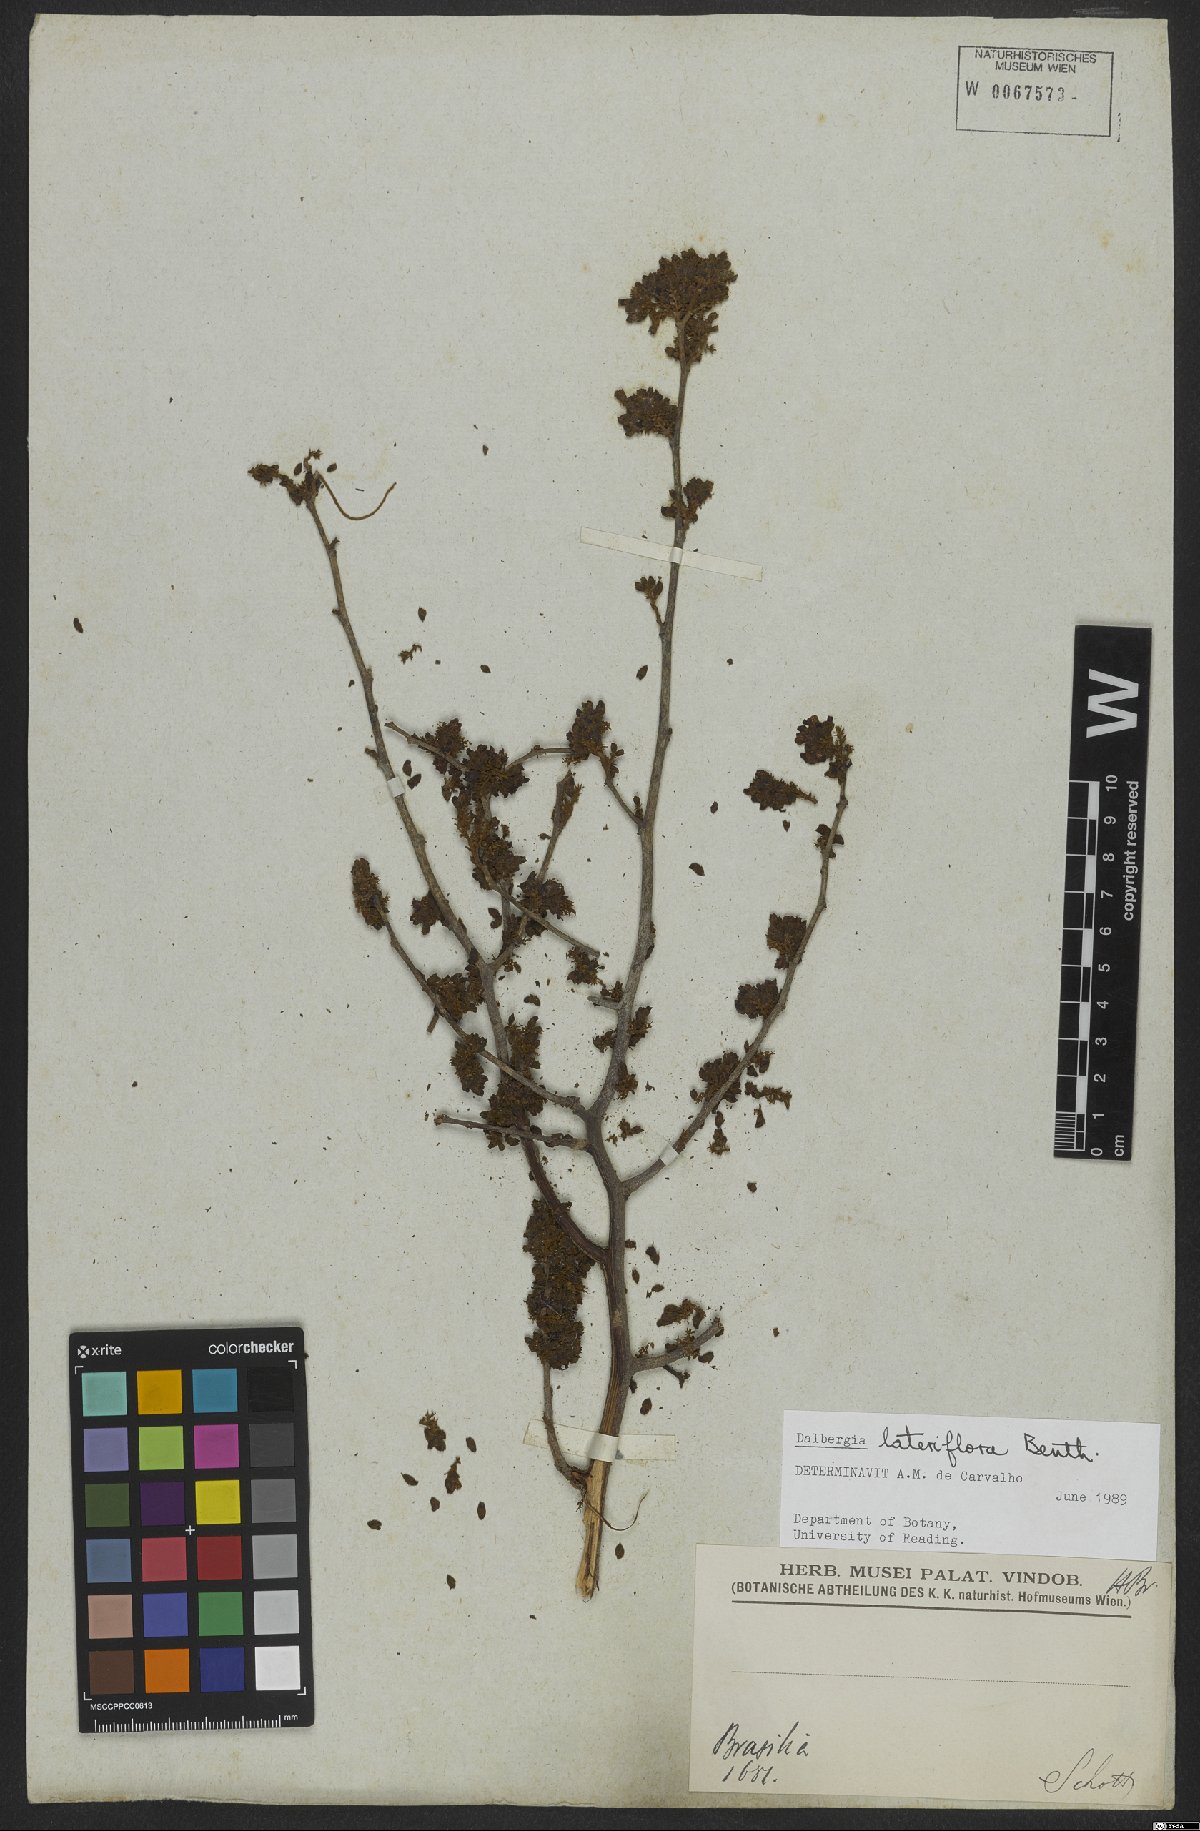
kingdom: Plantae
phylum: Tracheophyta
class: Magnoliopsida
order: Fabales
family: Fabaceae
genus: Dalbergia
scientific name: Dalbergia lateriflora
